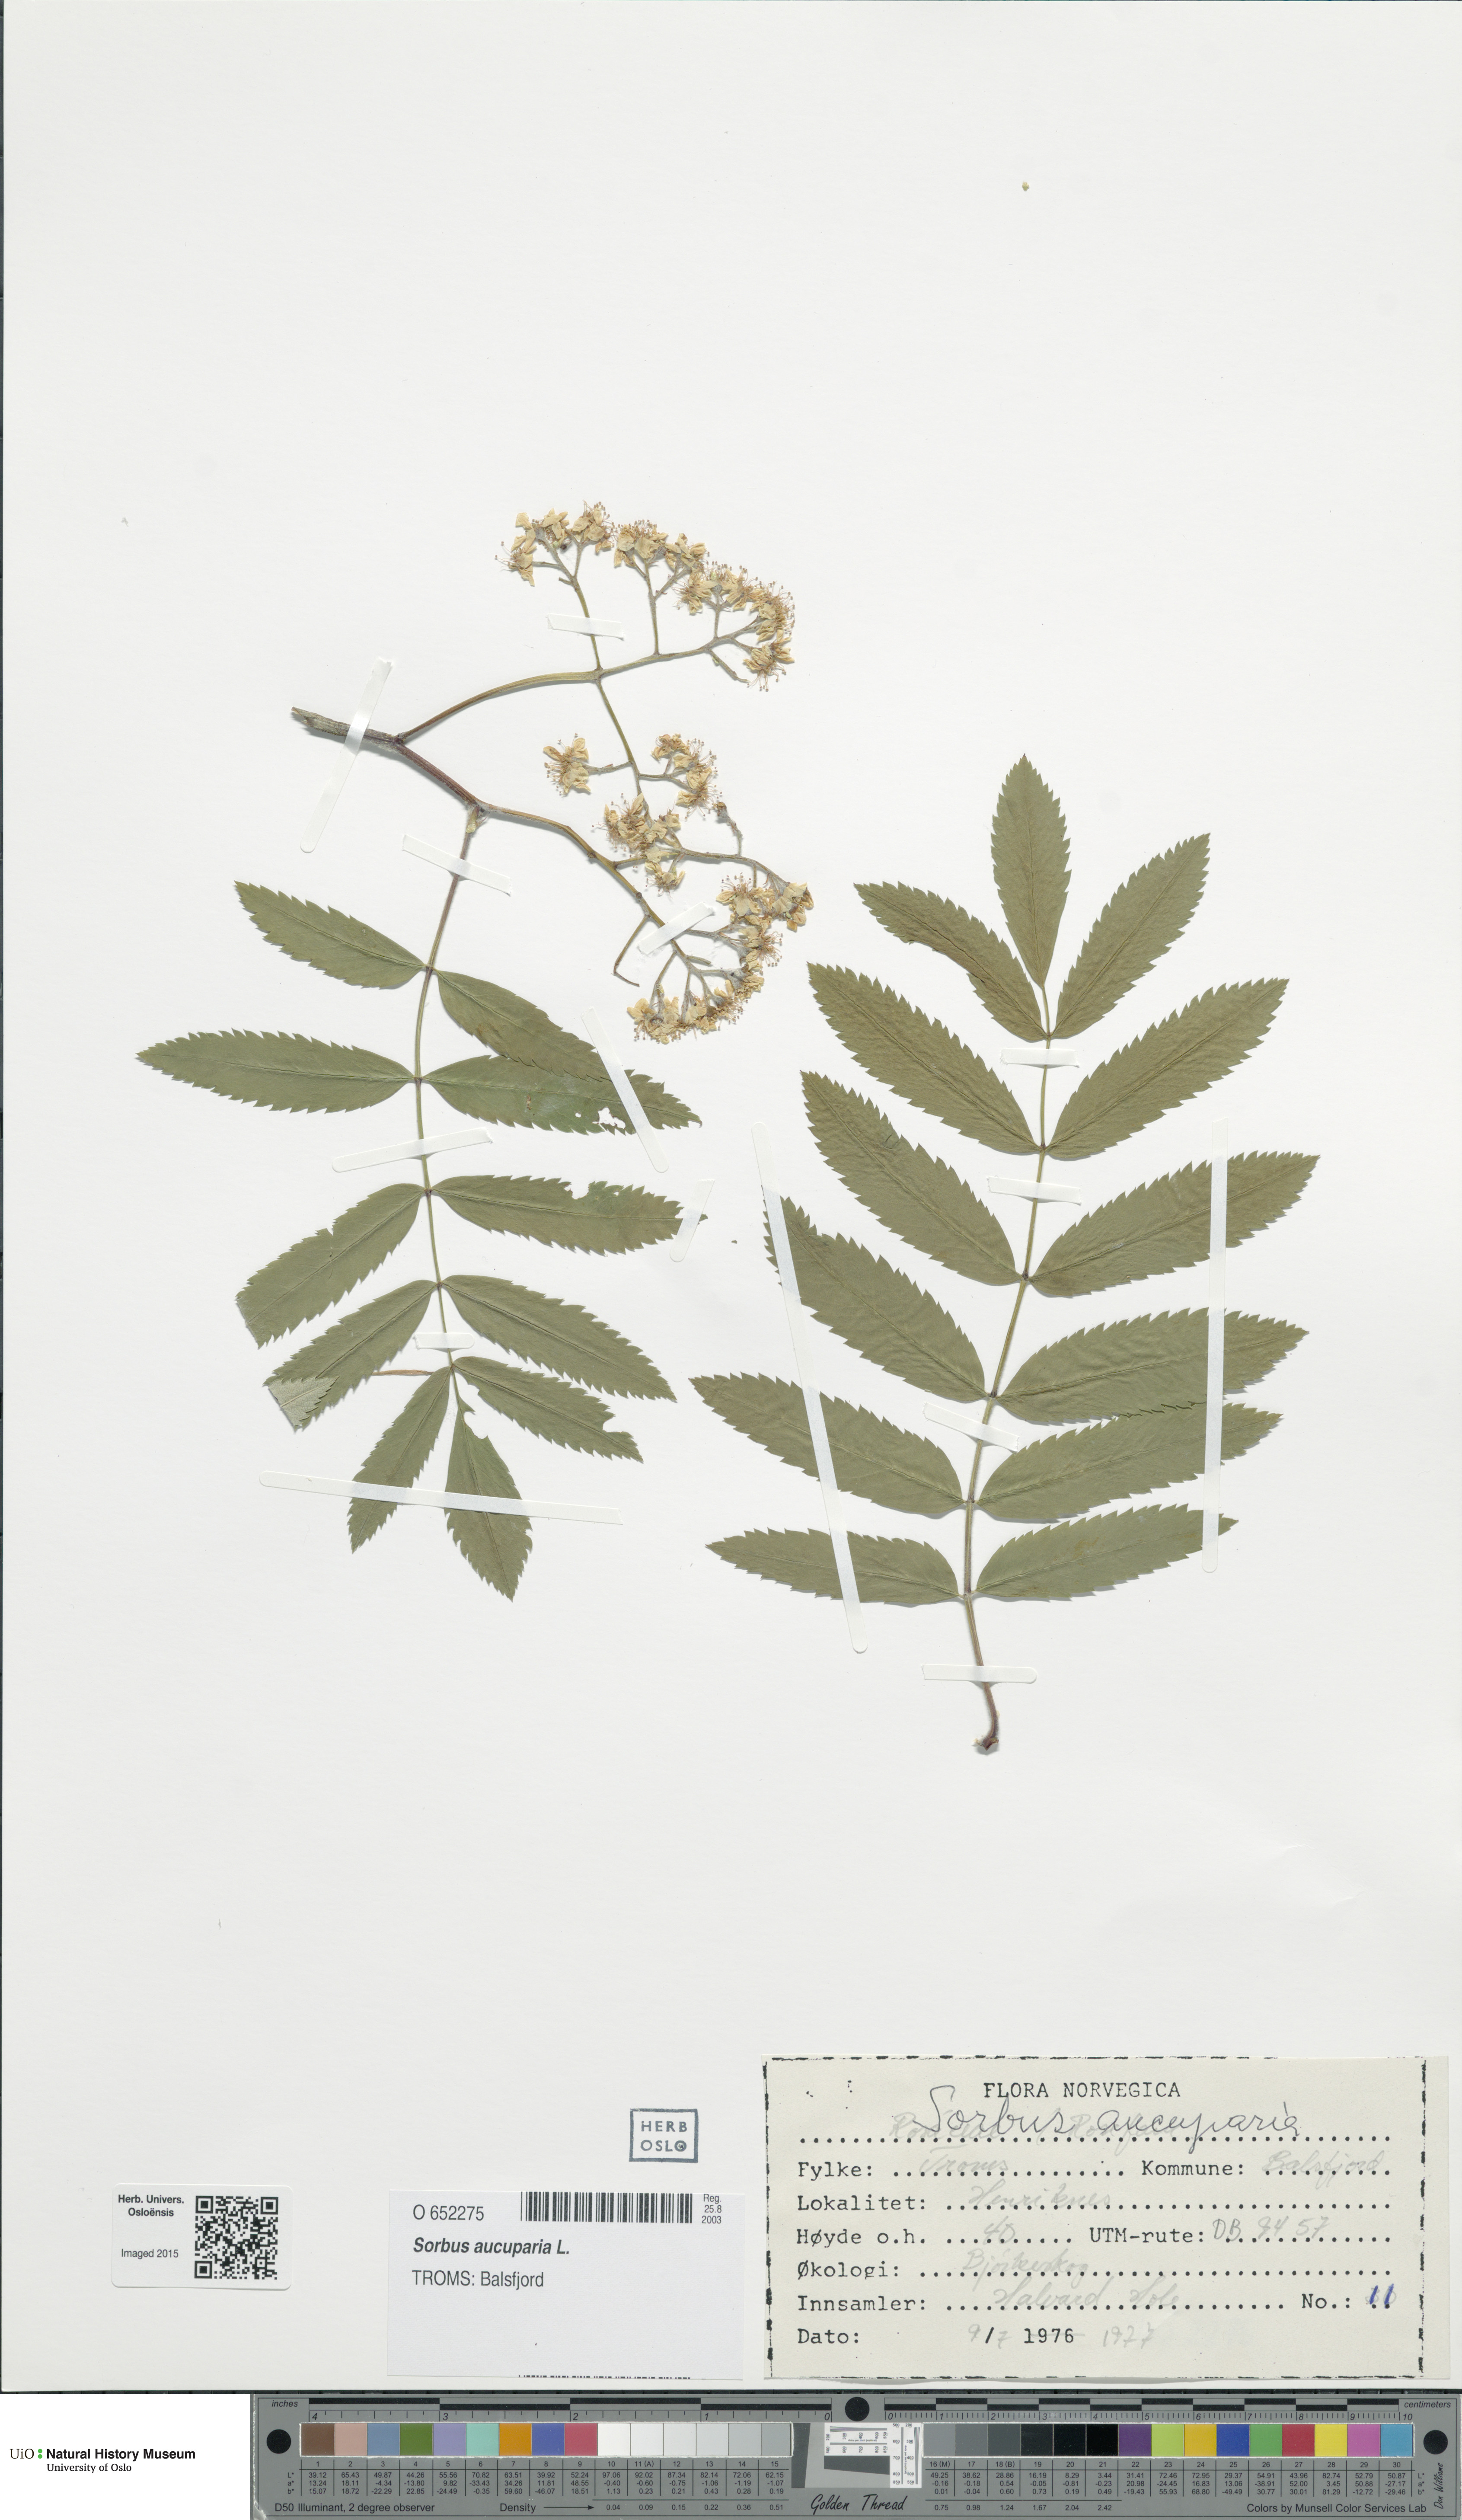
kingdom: Plantae
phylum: Tracheophyta
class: Magnoliopsida
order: Rosales
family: Rosaceae
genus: Sorbus
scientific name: Sorbus aucuparia
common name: Rowan
